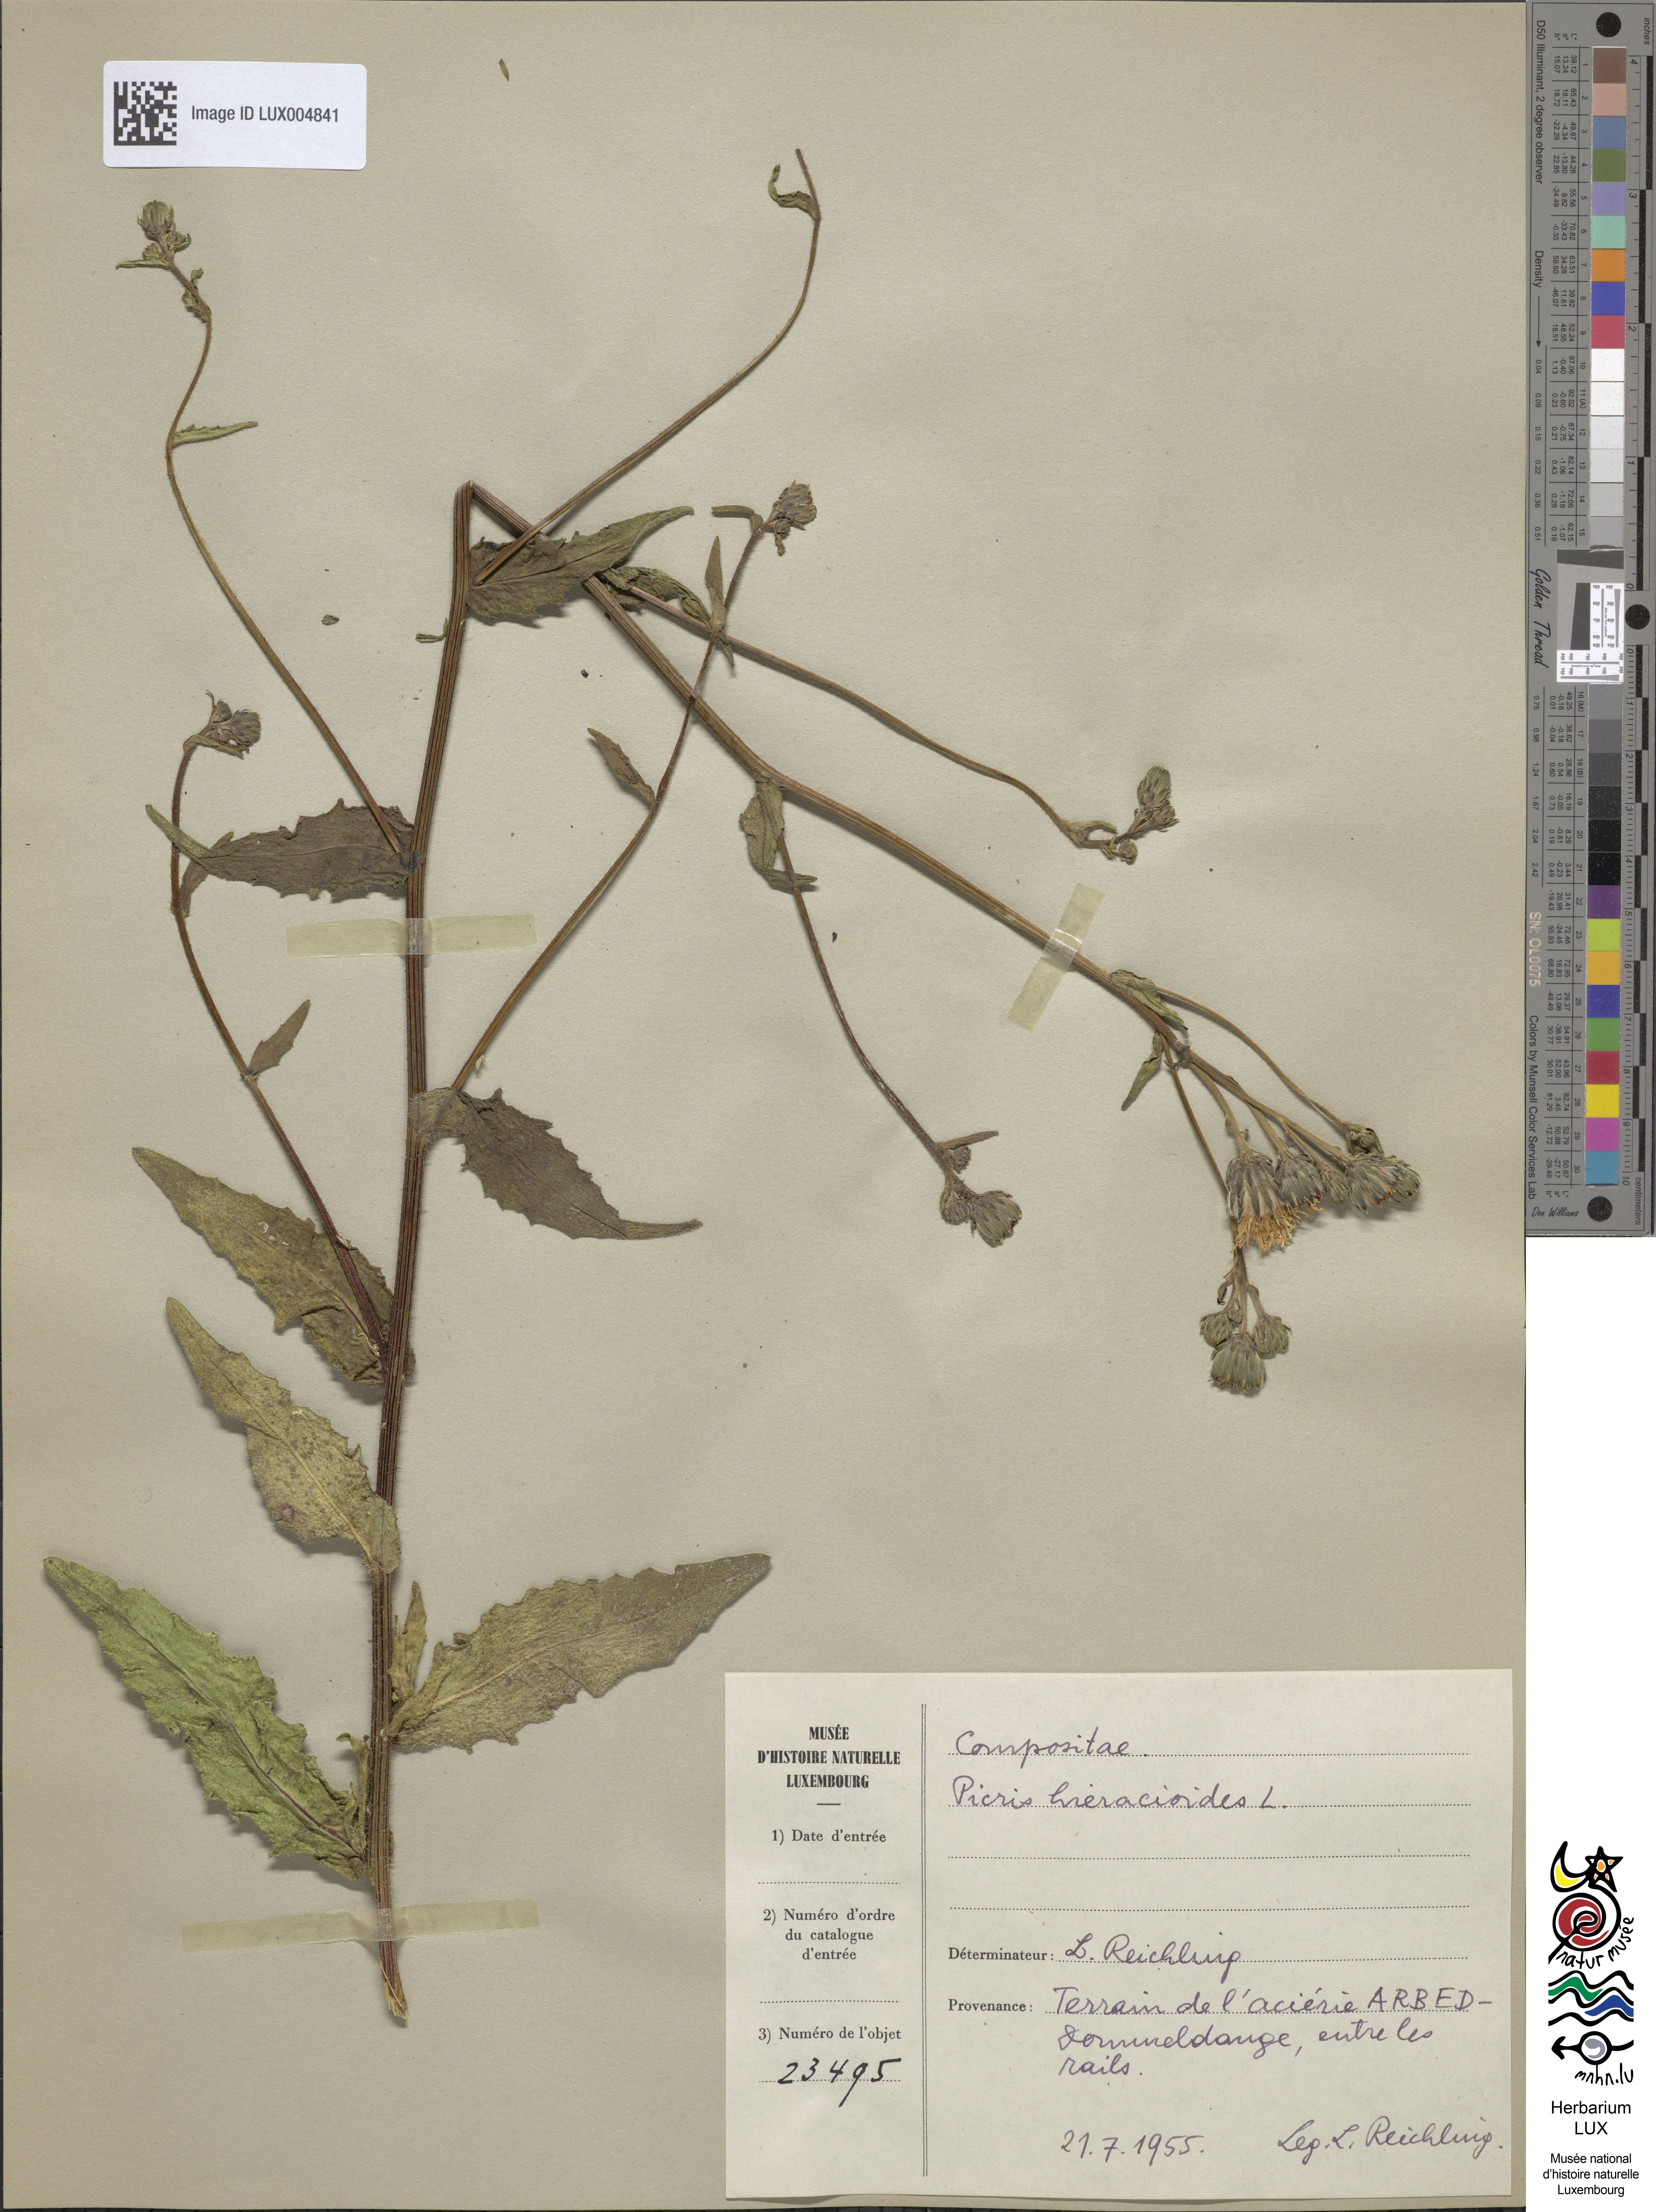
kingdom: Plantae
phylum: Tracheophyta
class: Magnoliopsida
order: Asterales
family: Asteraceae
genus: Picris
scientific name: Picris hieracioides
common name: Hawkweed oxtongue
